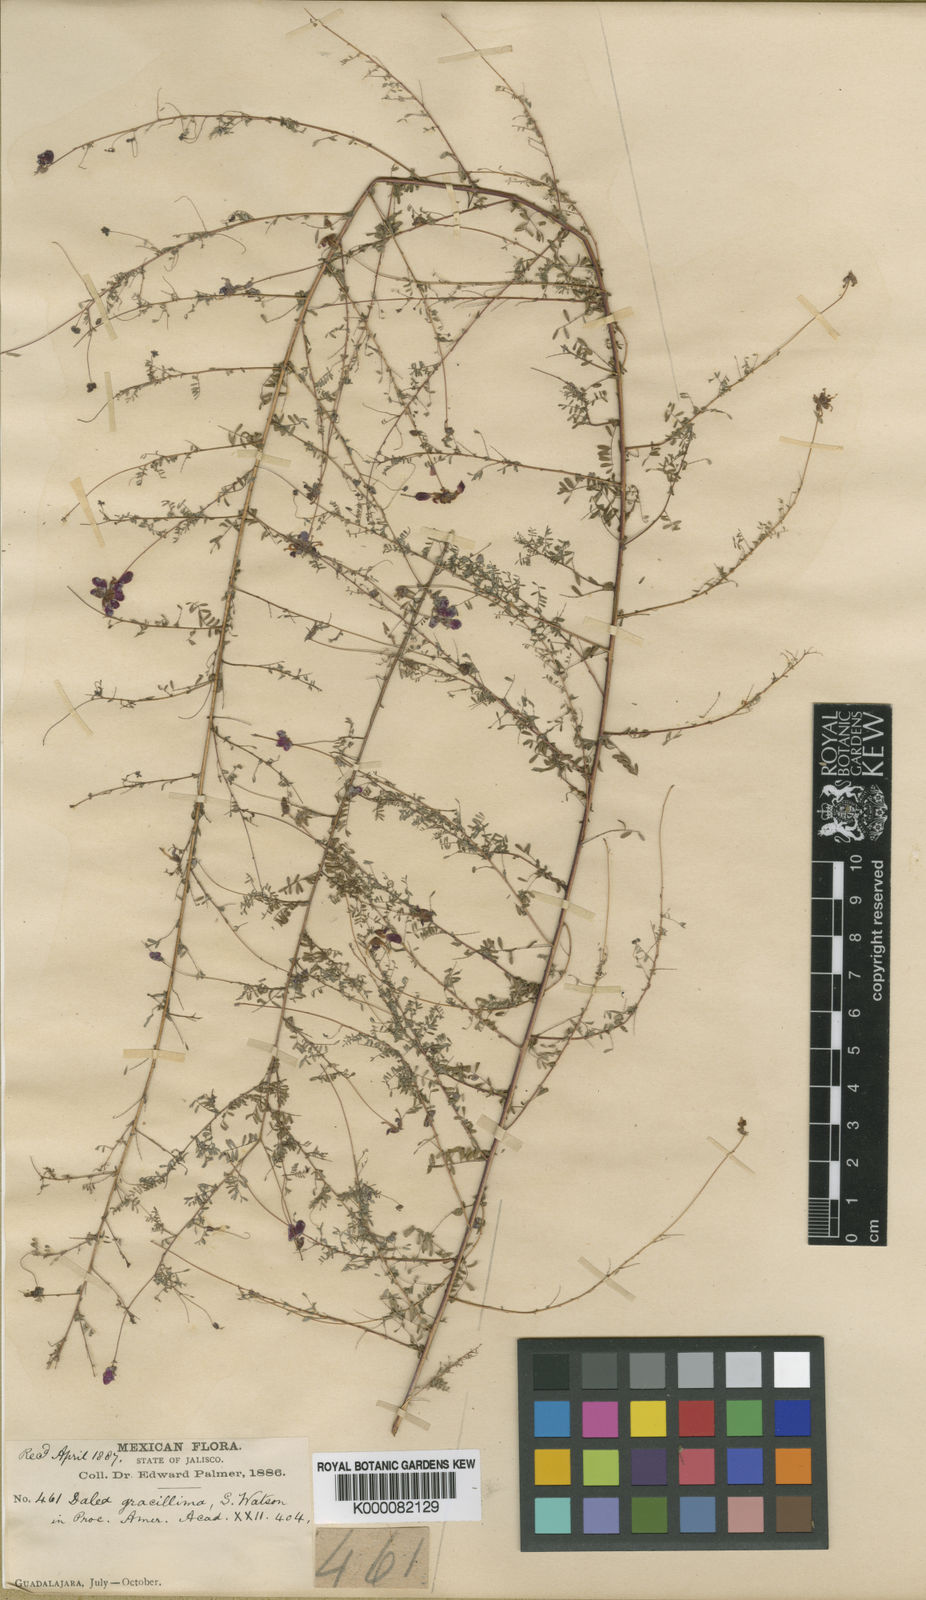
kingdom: Plantae
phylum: Tracheophyta
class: Magnoliopsida
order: Fabales
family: Fabaceae
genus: Marina
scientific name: Marina gracillima
